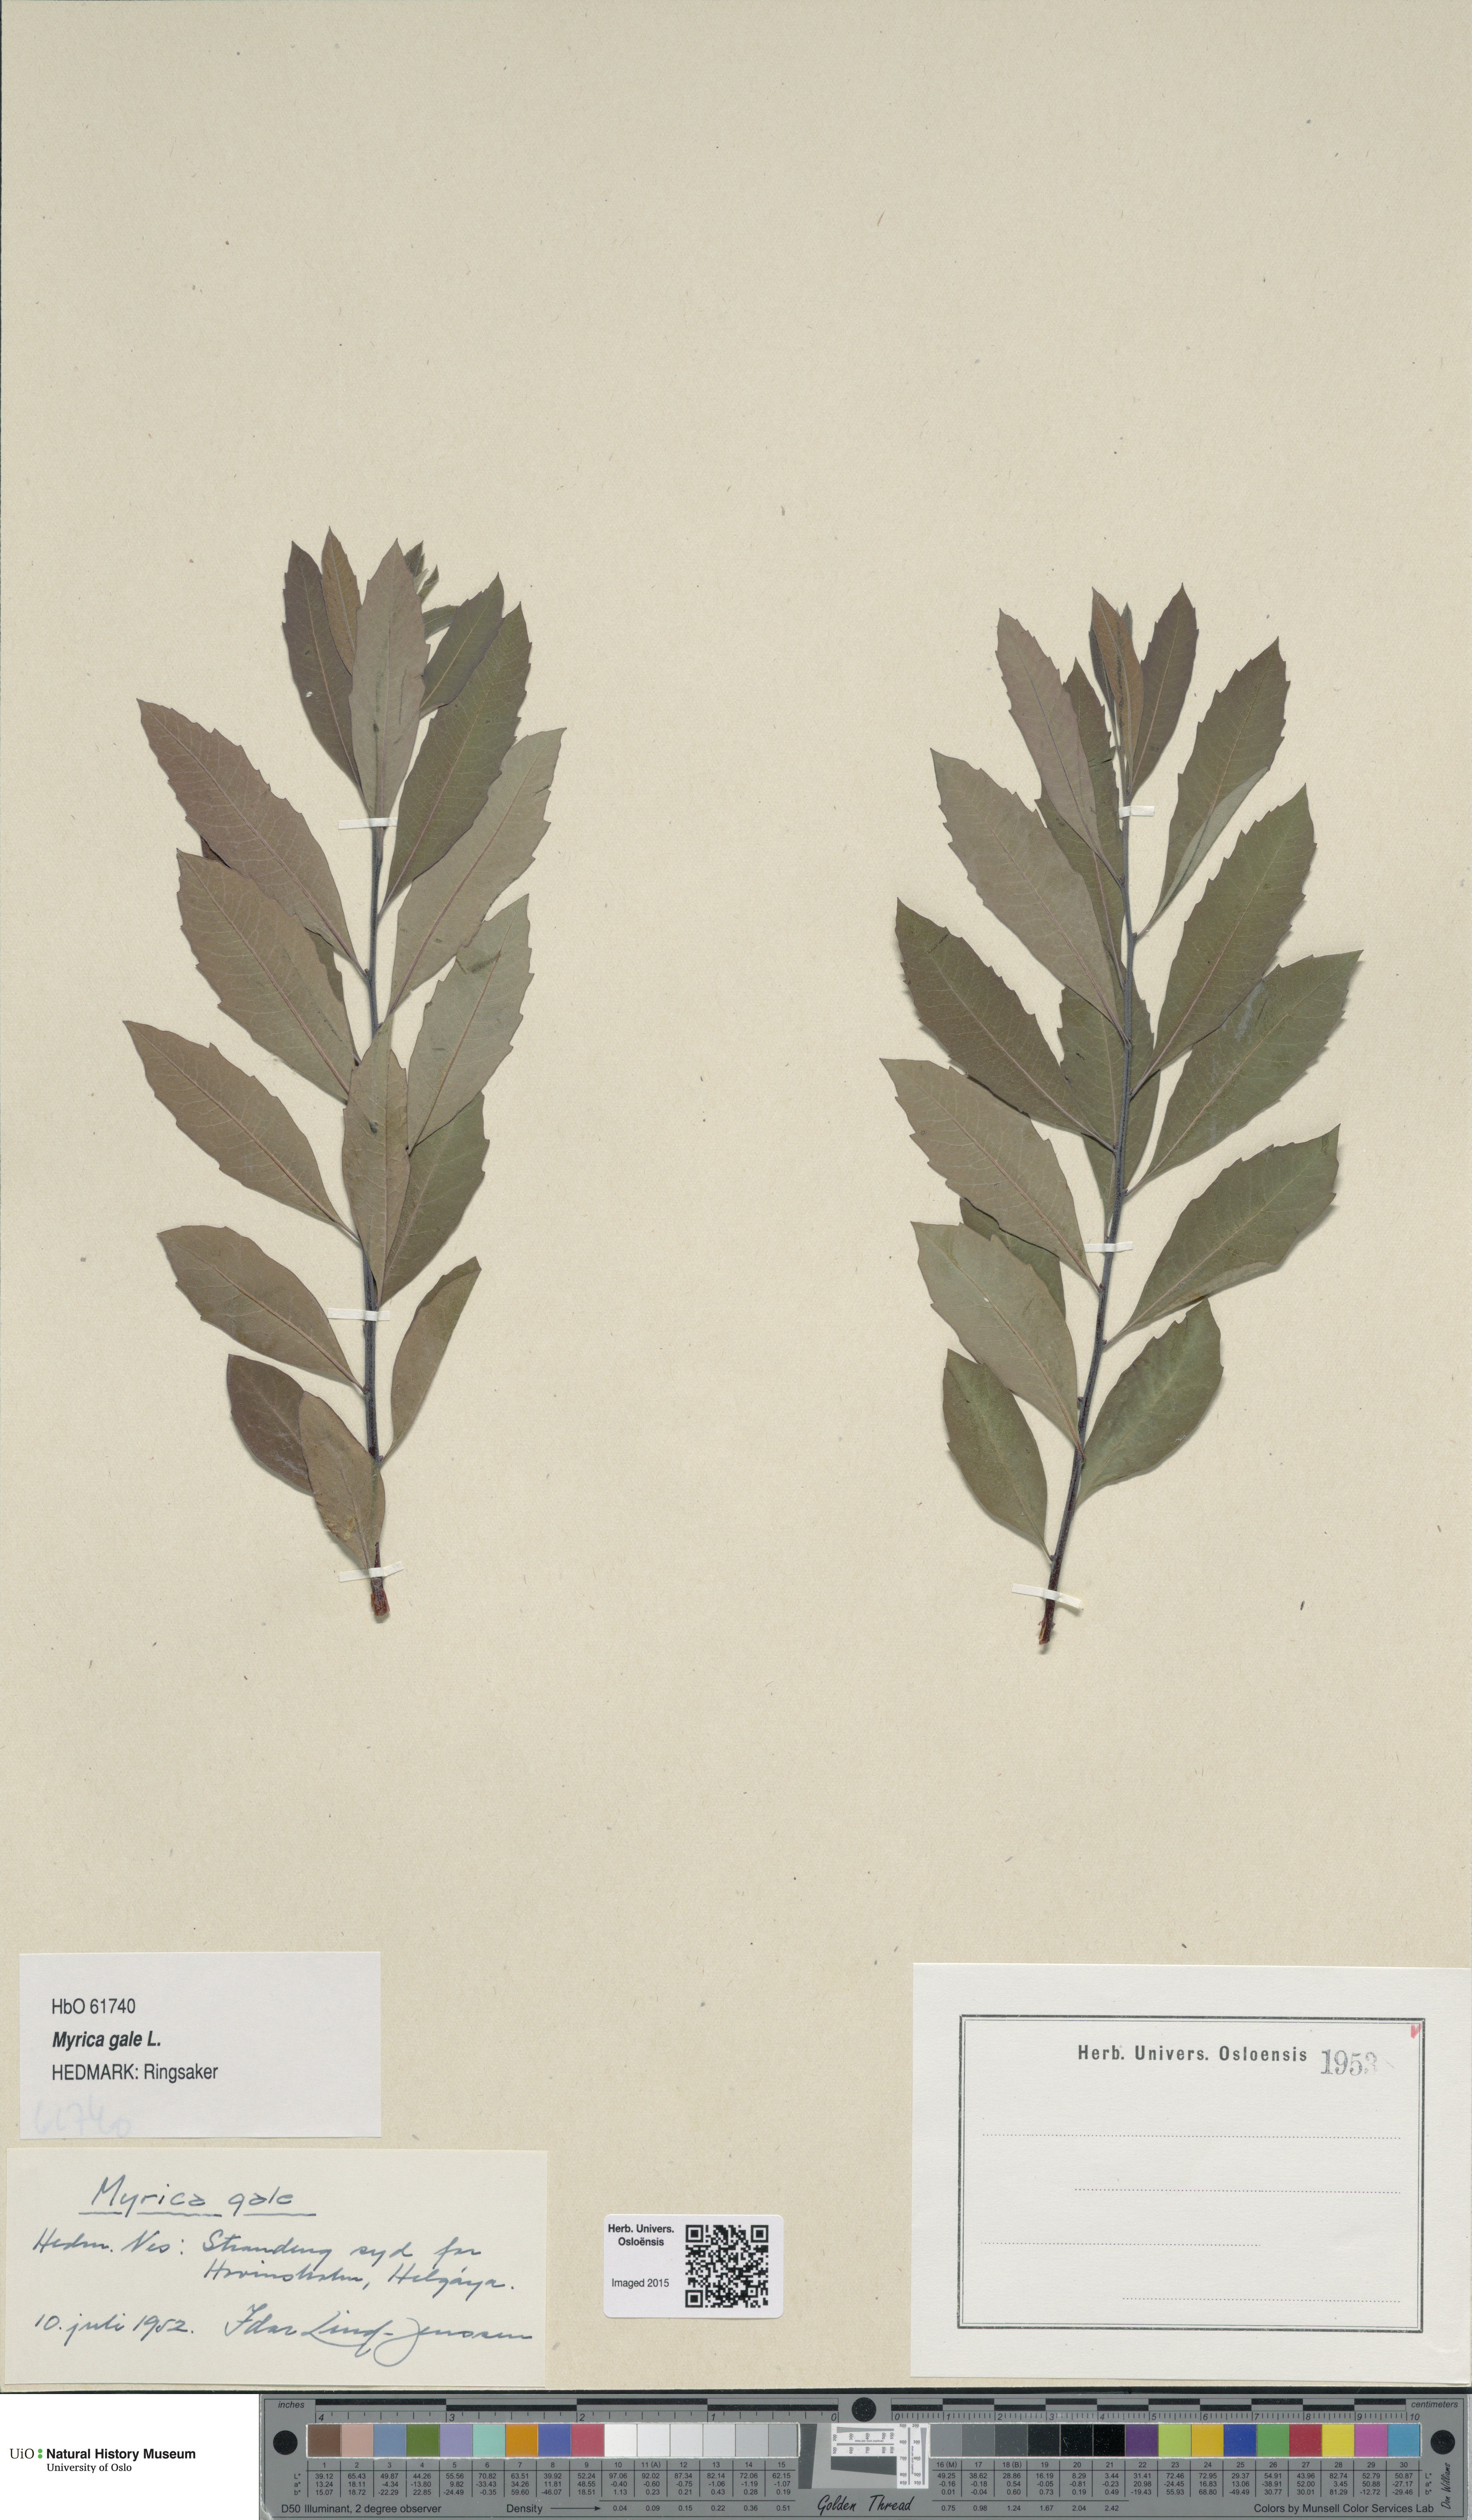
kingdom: Plantae
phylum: Tracheophyta
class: Magnoliopsida
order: Fagales
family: Myricaceae
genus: Myrica
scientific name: Myrica gale
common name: Sweet gale
